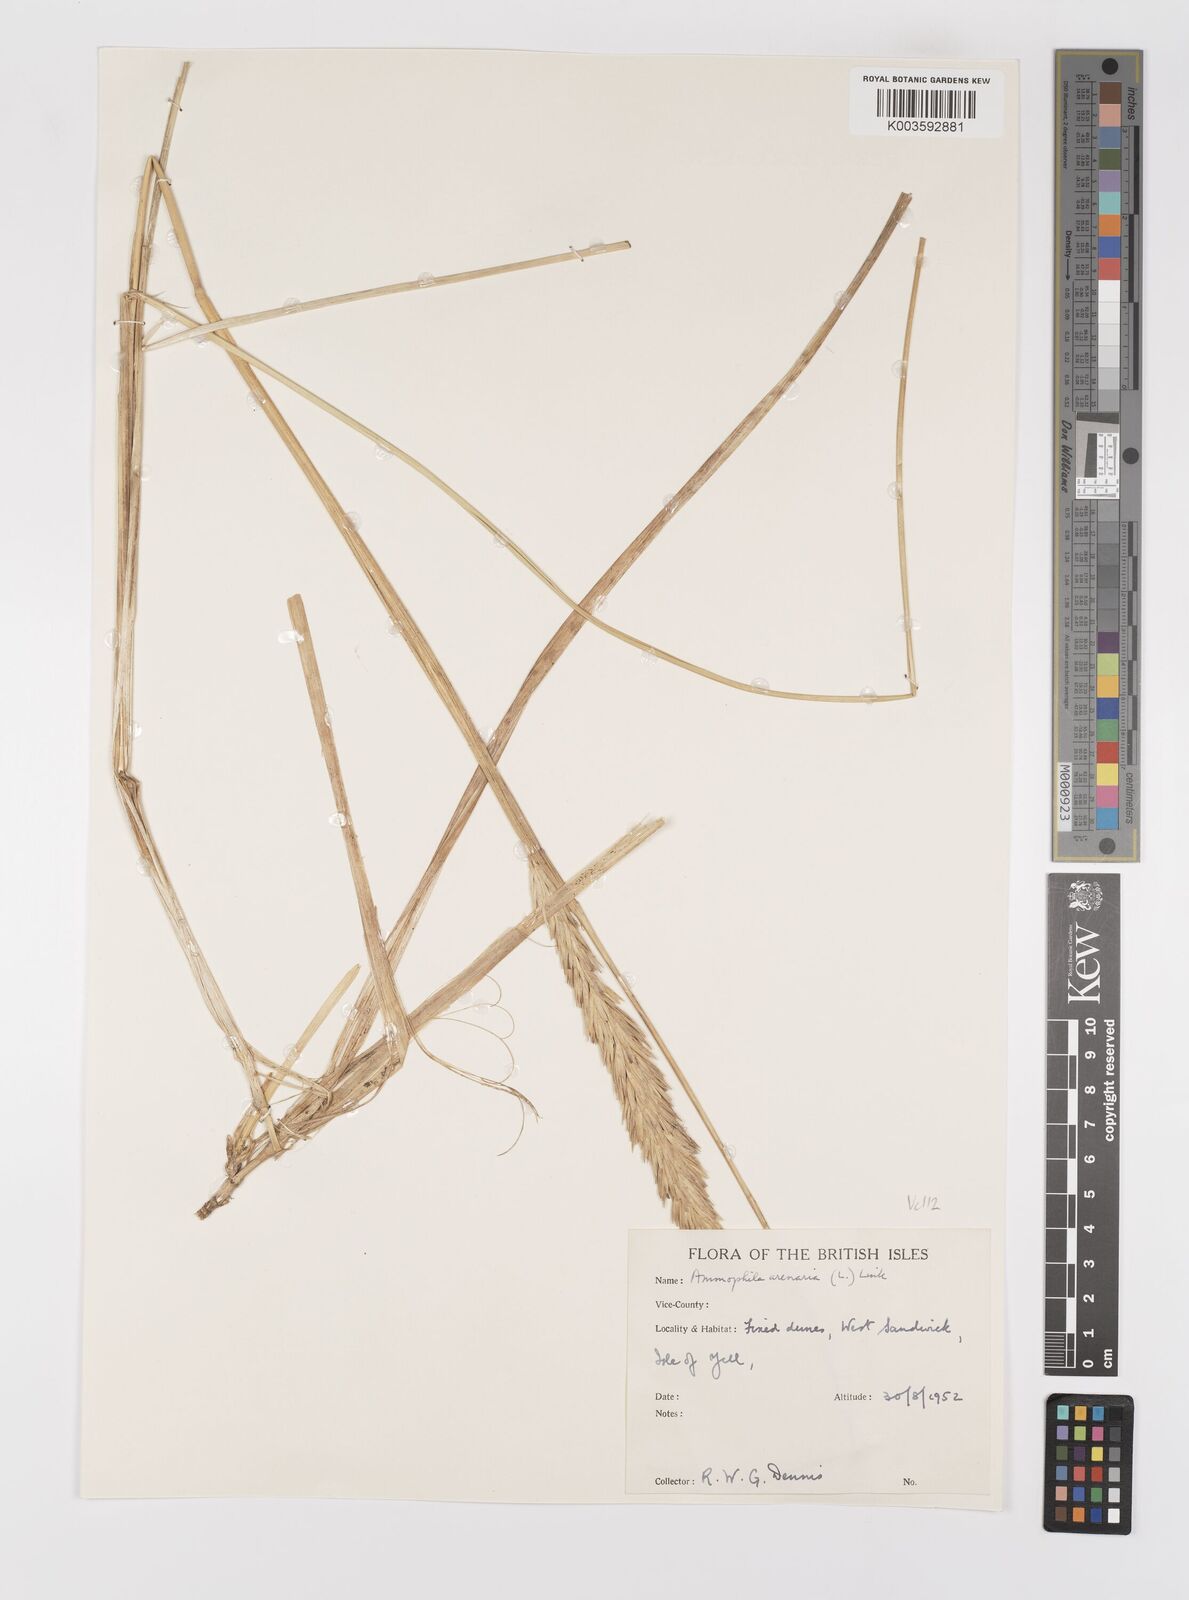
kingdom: Plantae
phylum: Tracheophyta
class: Liliopsida
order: Poales
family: Poaceae
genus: Calamagrostis
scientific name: Calamagrostis arenaria
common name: European beachgrass
